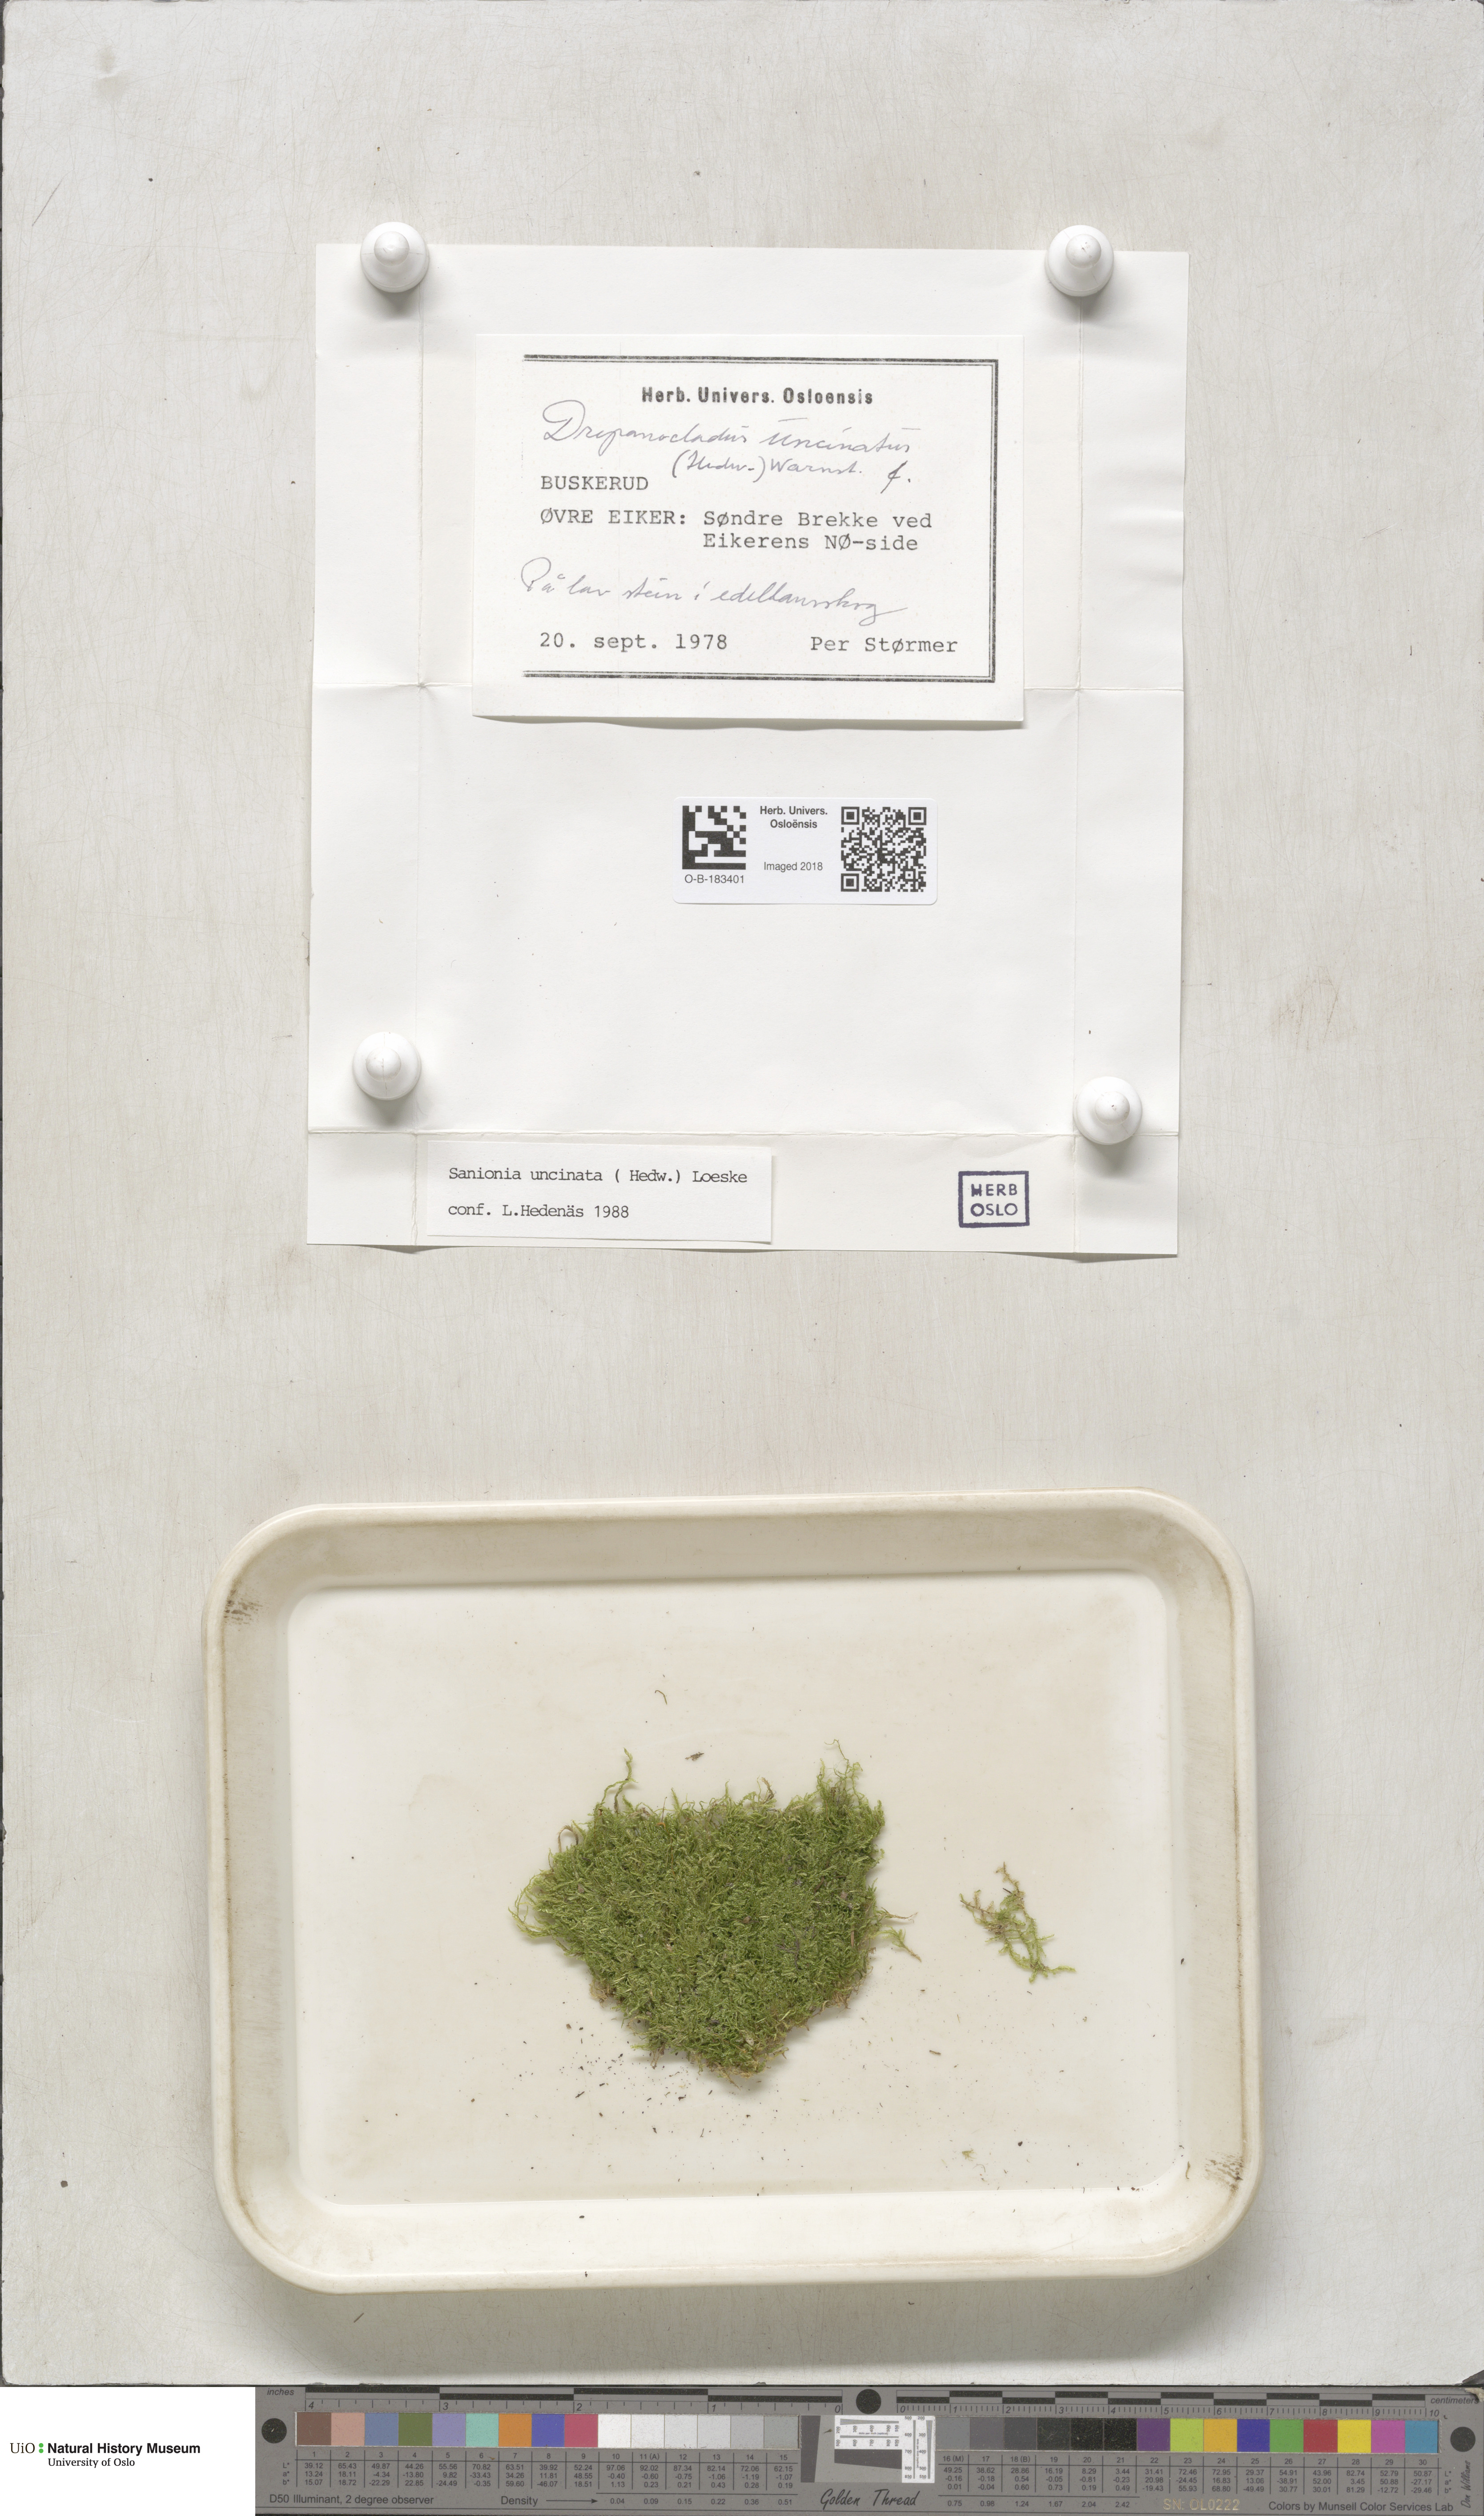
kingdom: Plantae
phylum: Bryophyta
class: Bryopsida
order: Hypnales
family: Scorpidiaceae
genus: Sanionia
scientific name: Sanionia uncinata
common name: Sickle moss
